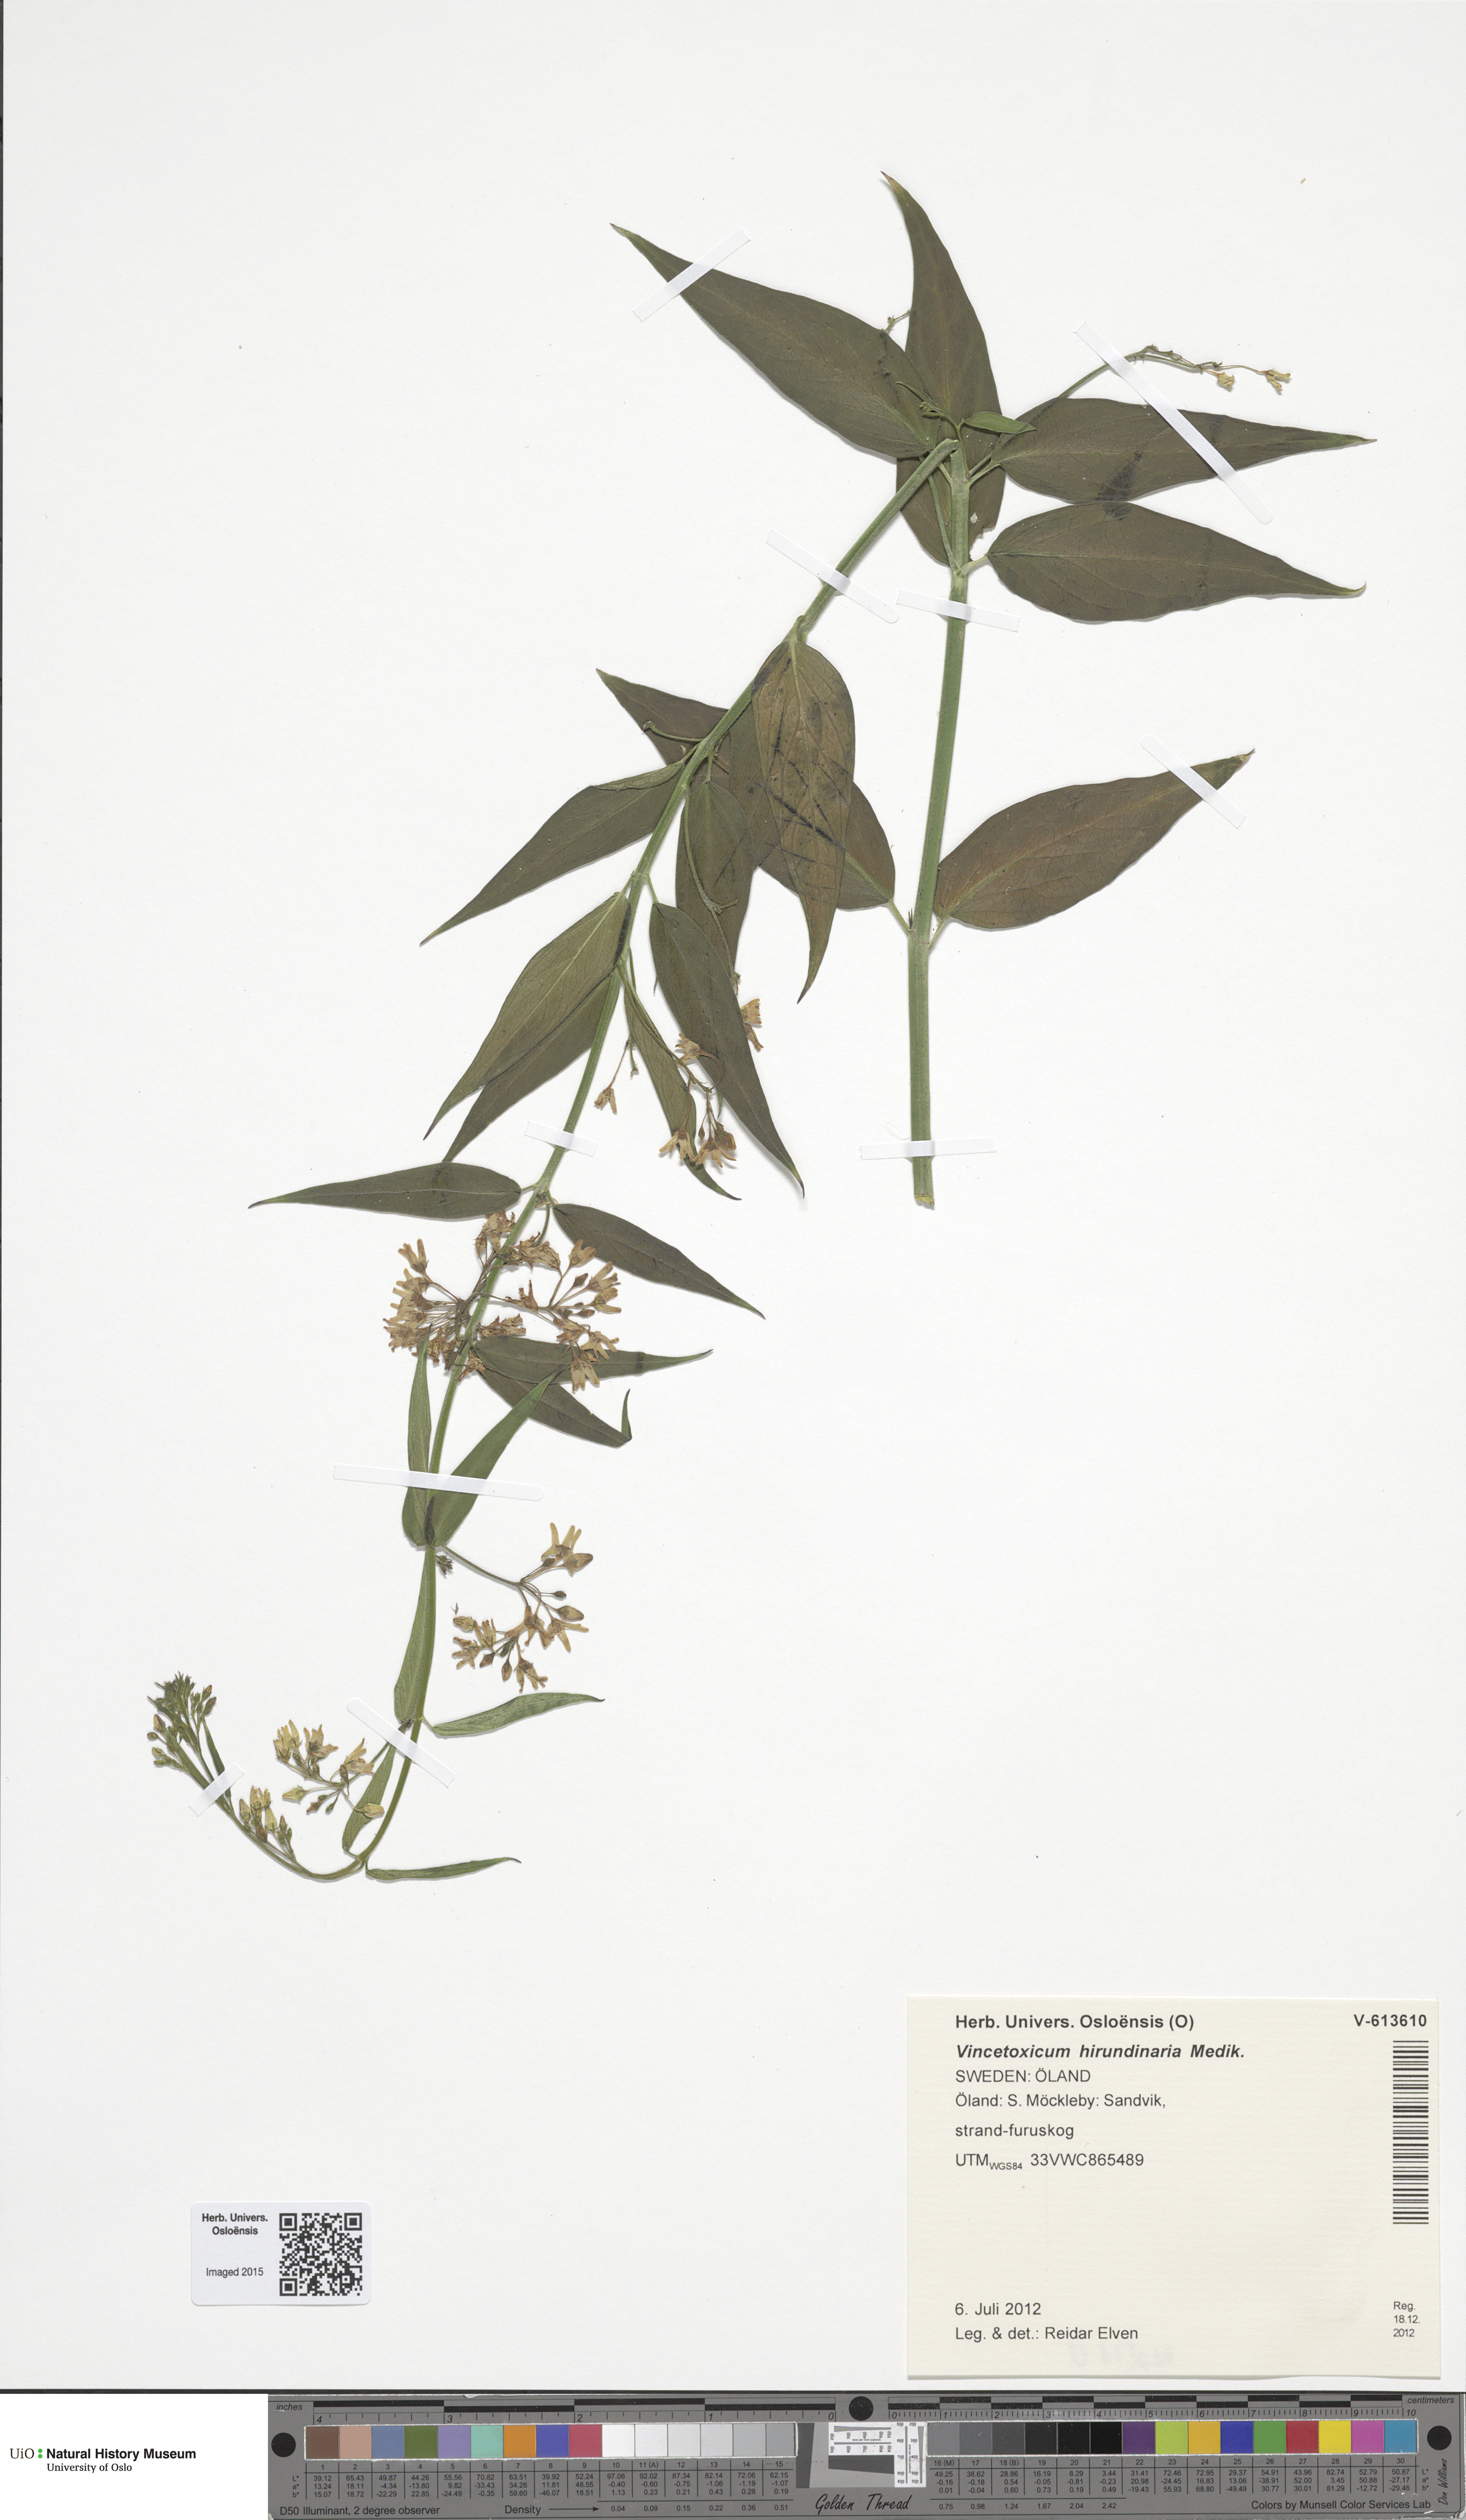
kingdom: Plantae
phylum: Tracheophyta
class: Magnoliopsida
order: Gentianales
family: Apocynaceae
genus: Vincetoxicum
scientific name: Vincetoxicum hirundinaria
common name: White swallowwort
